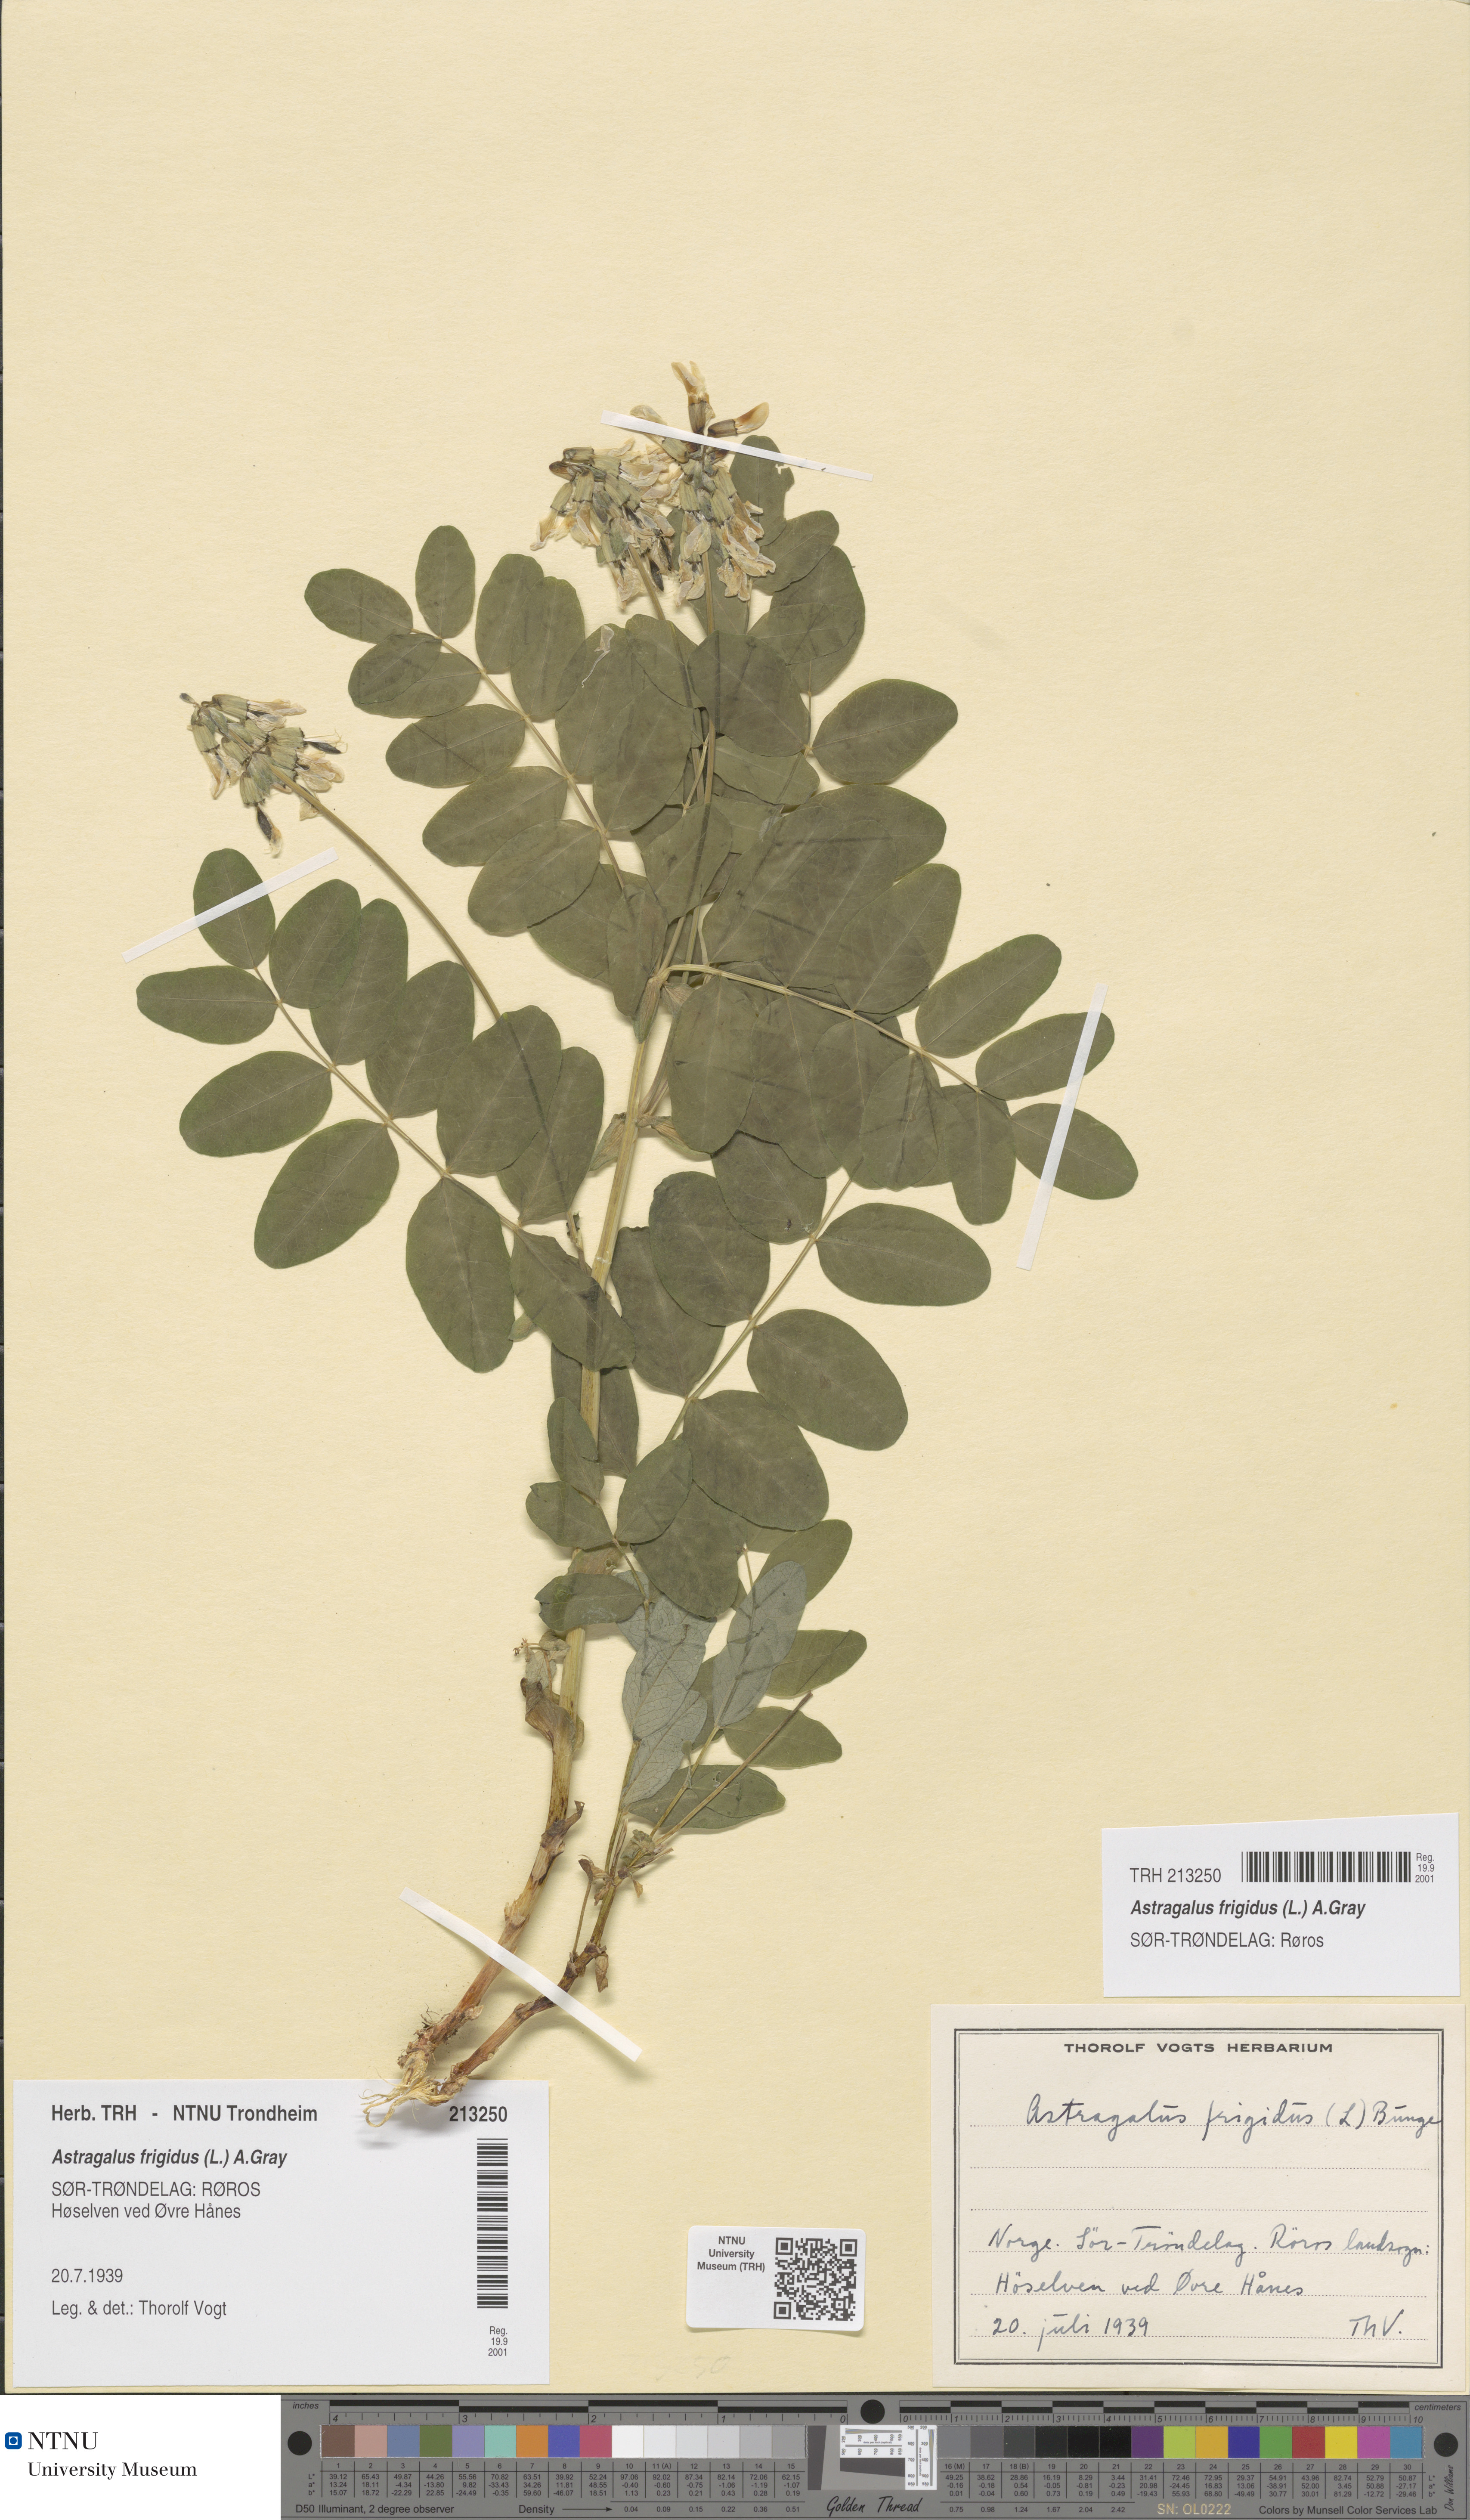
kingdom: Plantae
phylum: Tracheophyta
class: Magnoliopsida
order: Fabales
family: Fabaceae
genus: Astragalus
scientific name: Astragalus frigidus
